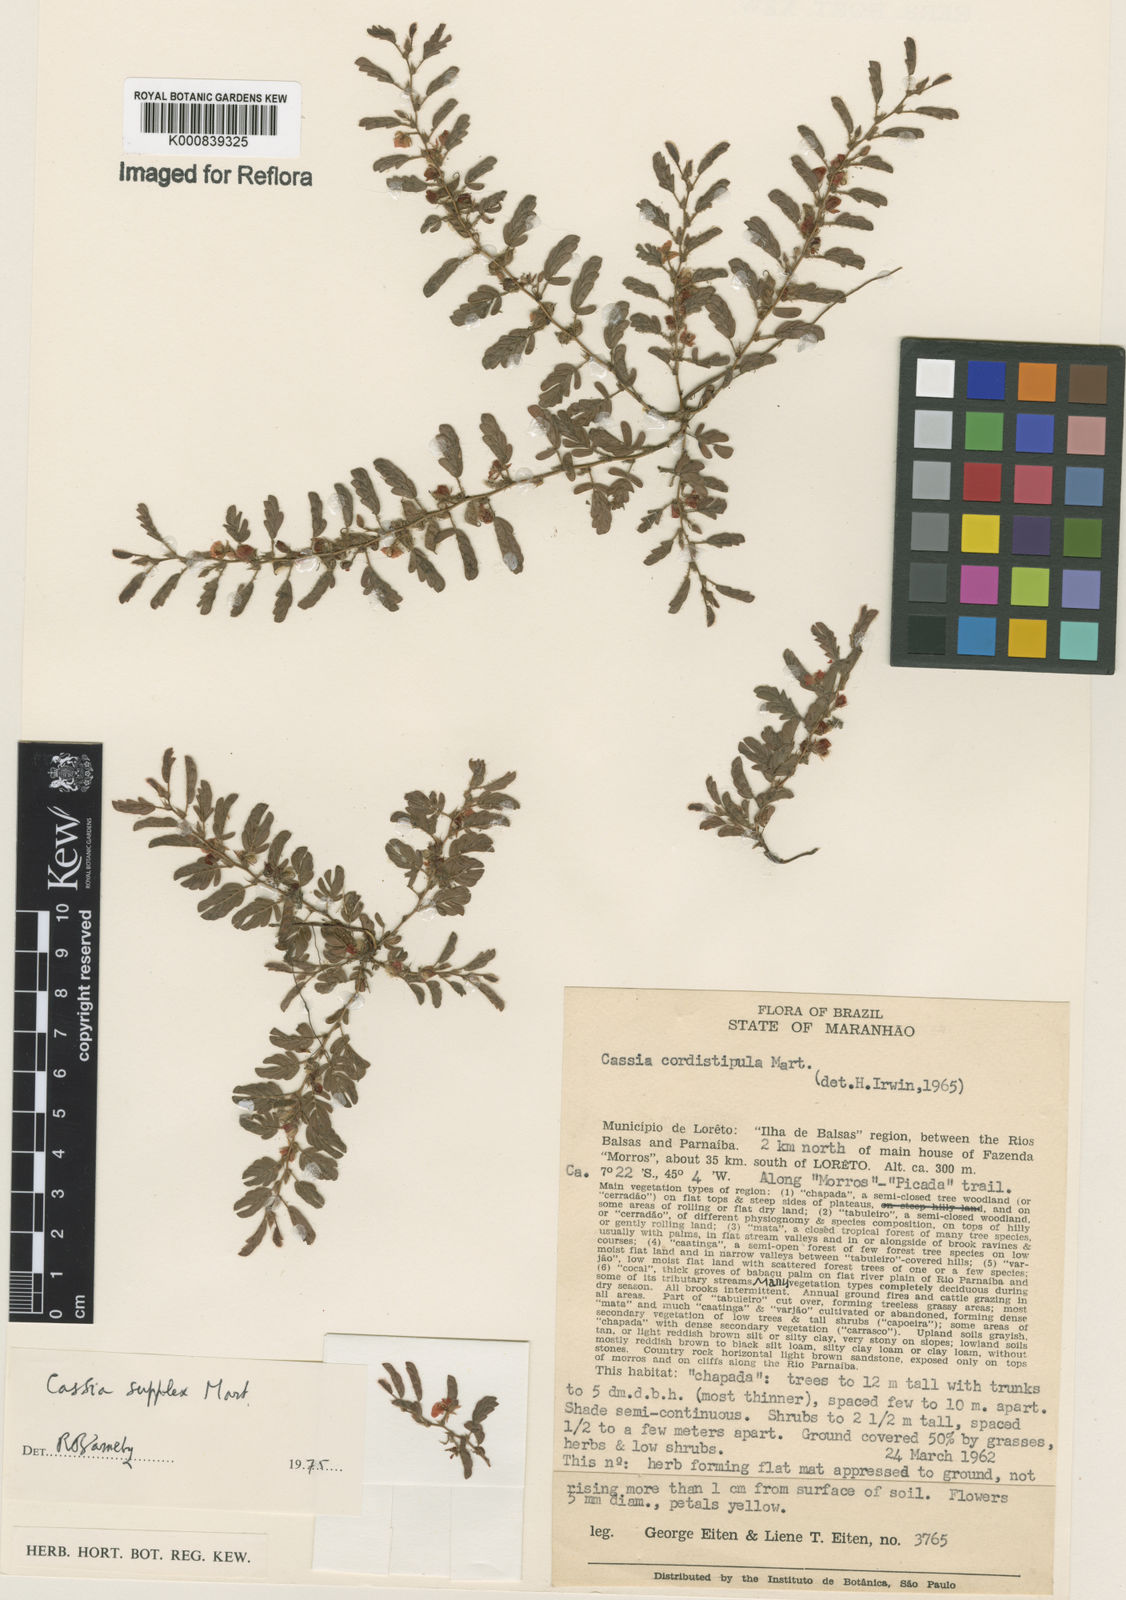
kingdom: Plantae
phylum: Tracheophyta
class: Magnoliopsida
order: Fabales
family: Fabaceae
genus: Chamaecrista
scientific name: Chamaecrista supplex
